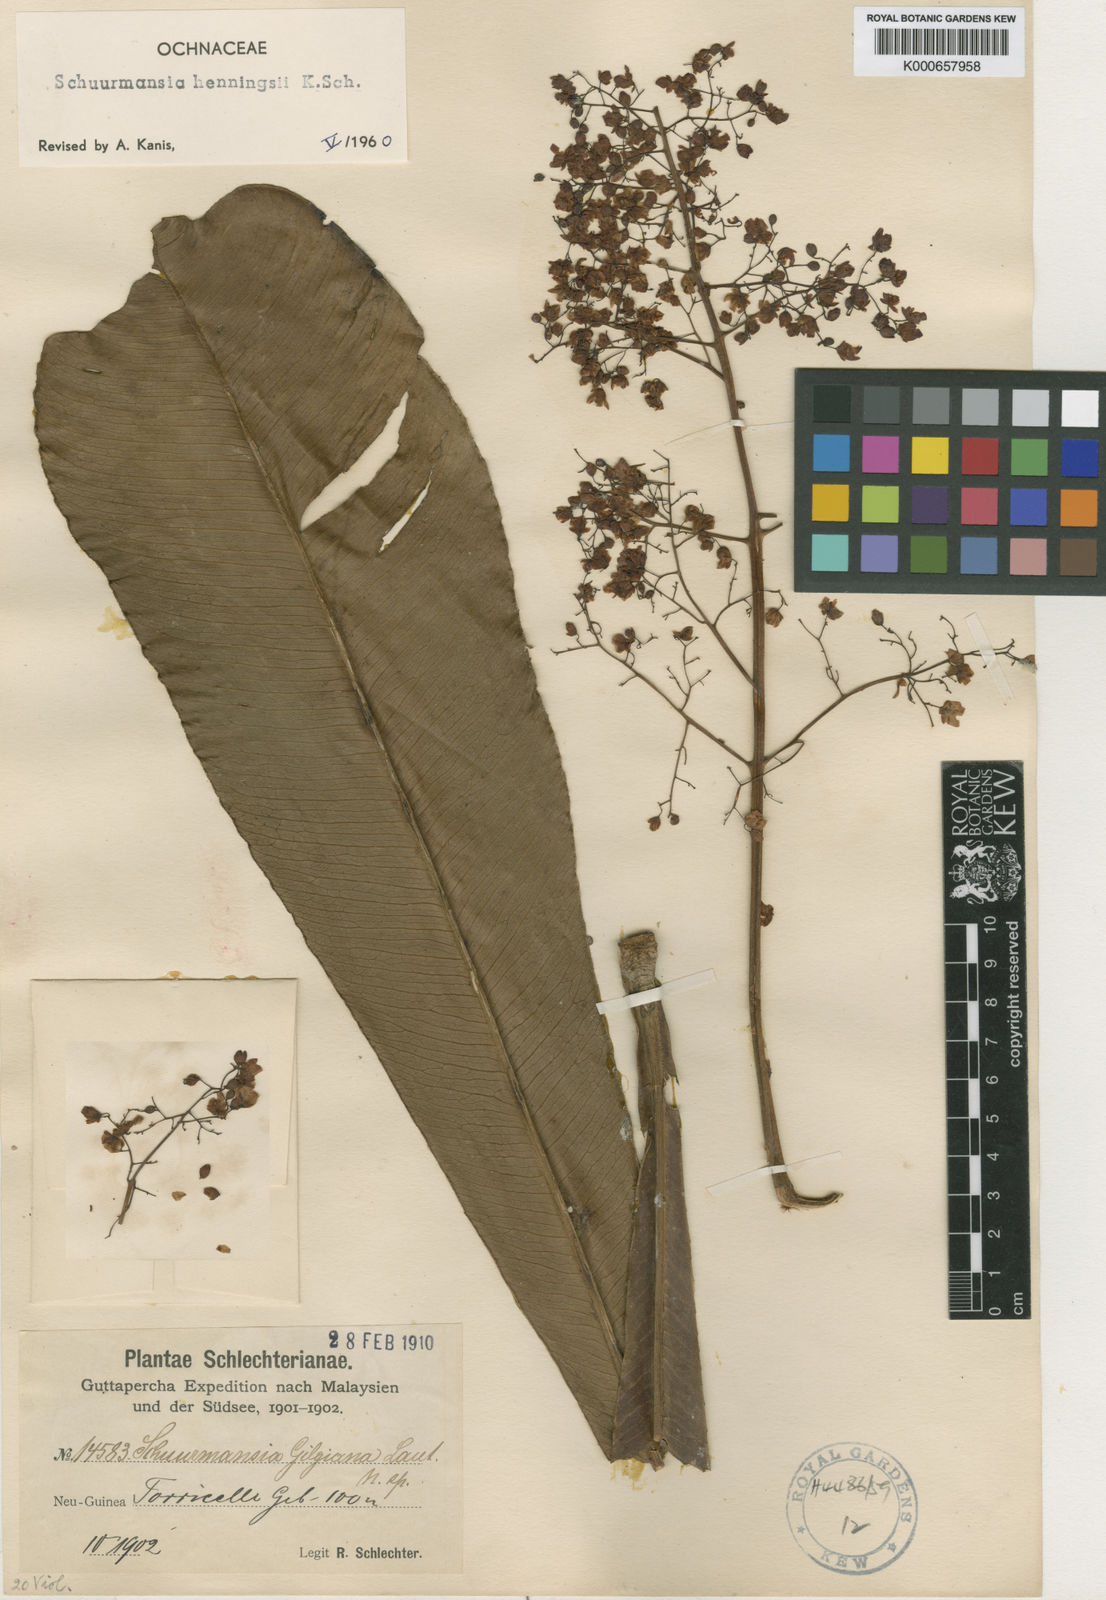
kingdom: Plantae
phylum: Tracheophyta
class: Magnoliopsida
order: Malpighiales
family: Ochnaceae
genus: Schuurmansia
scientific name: Schuurmansia henningsii
